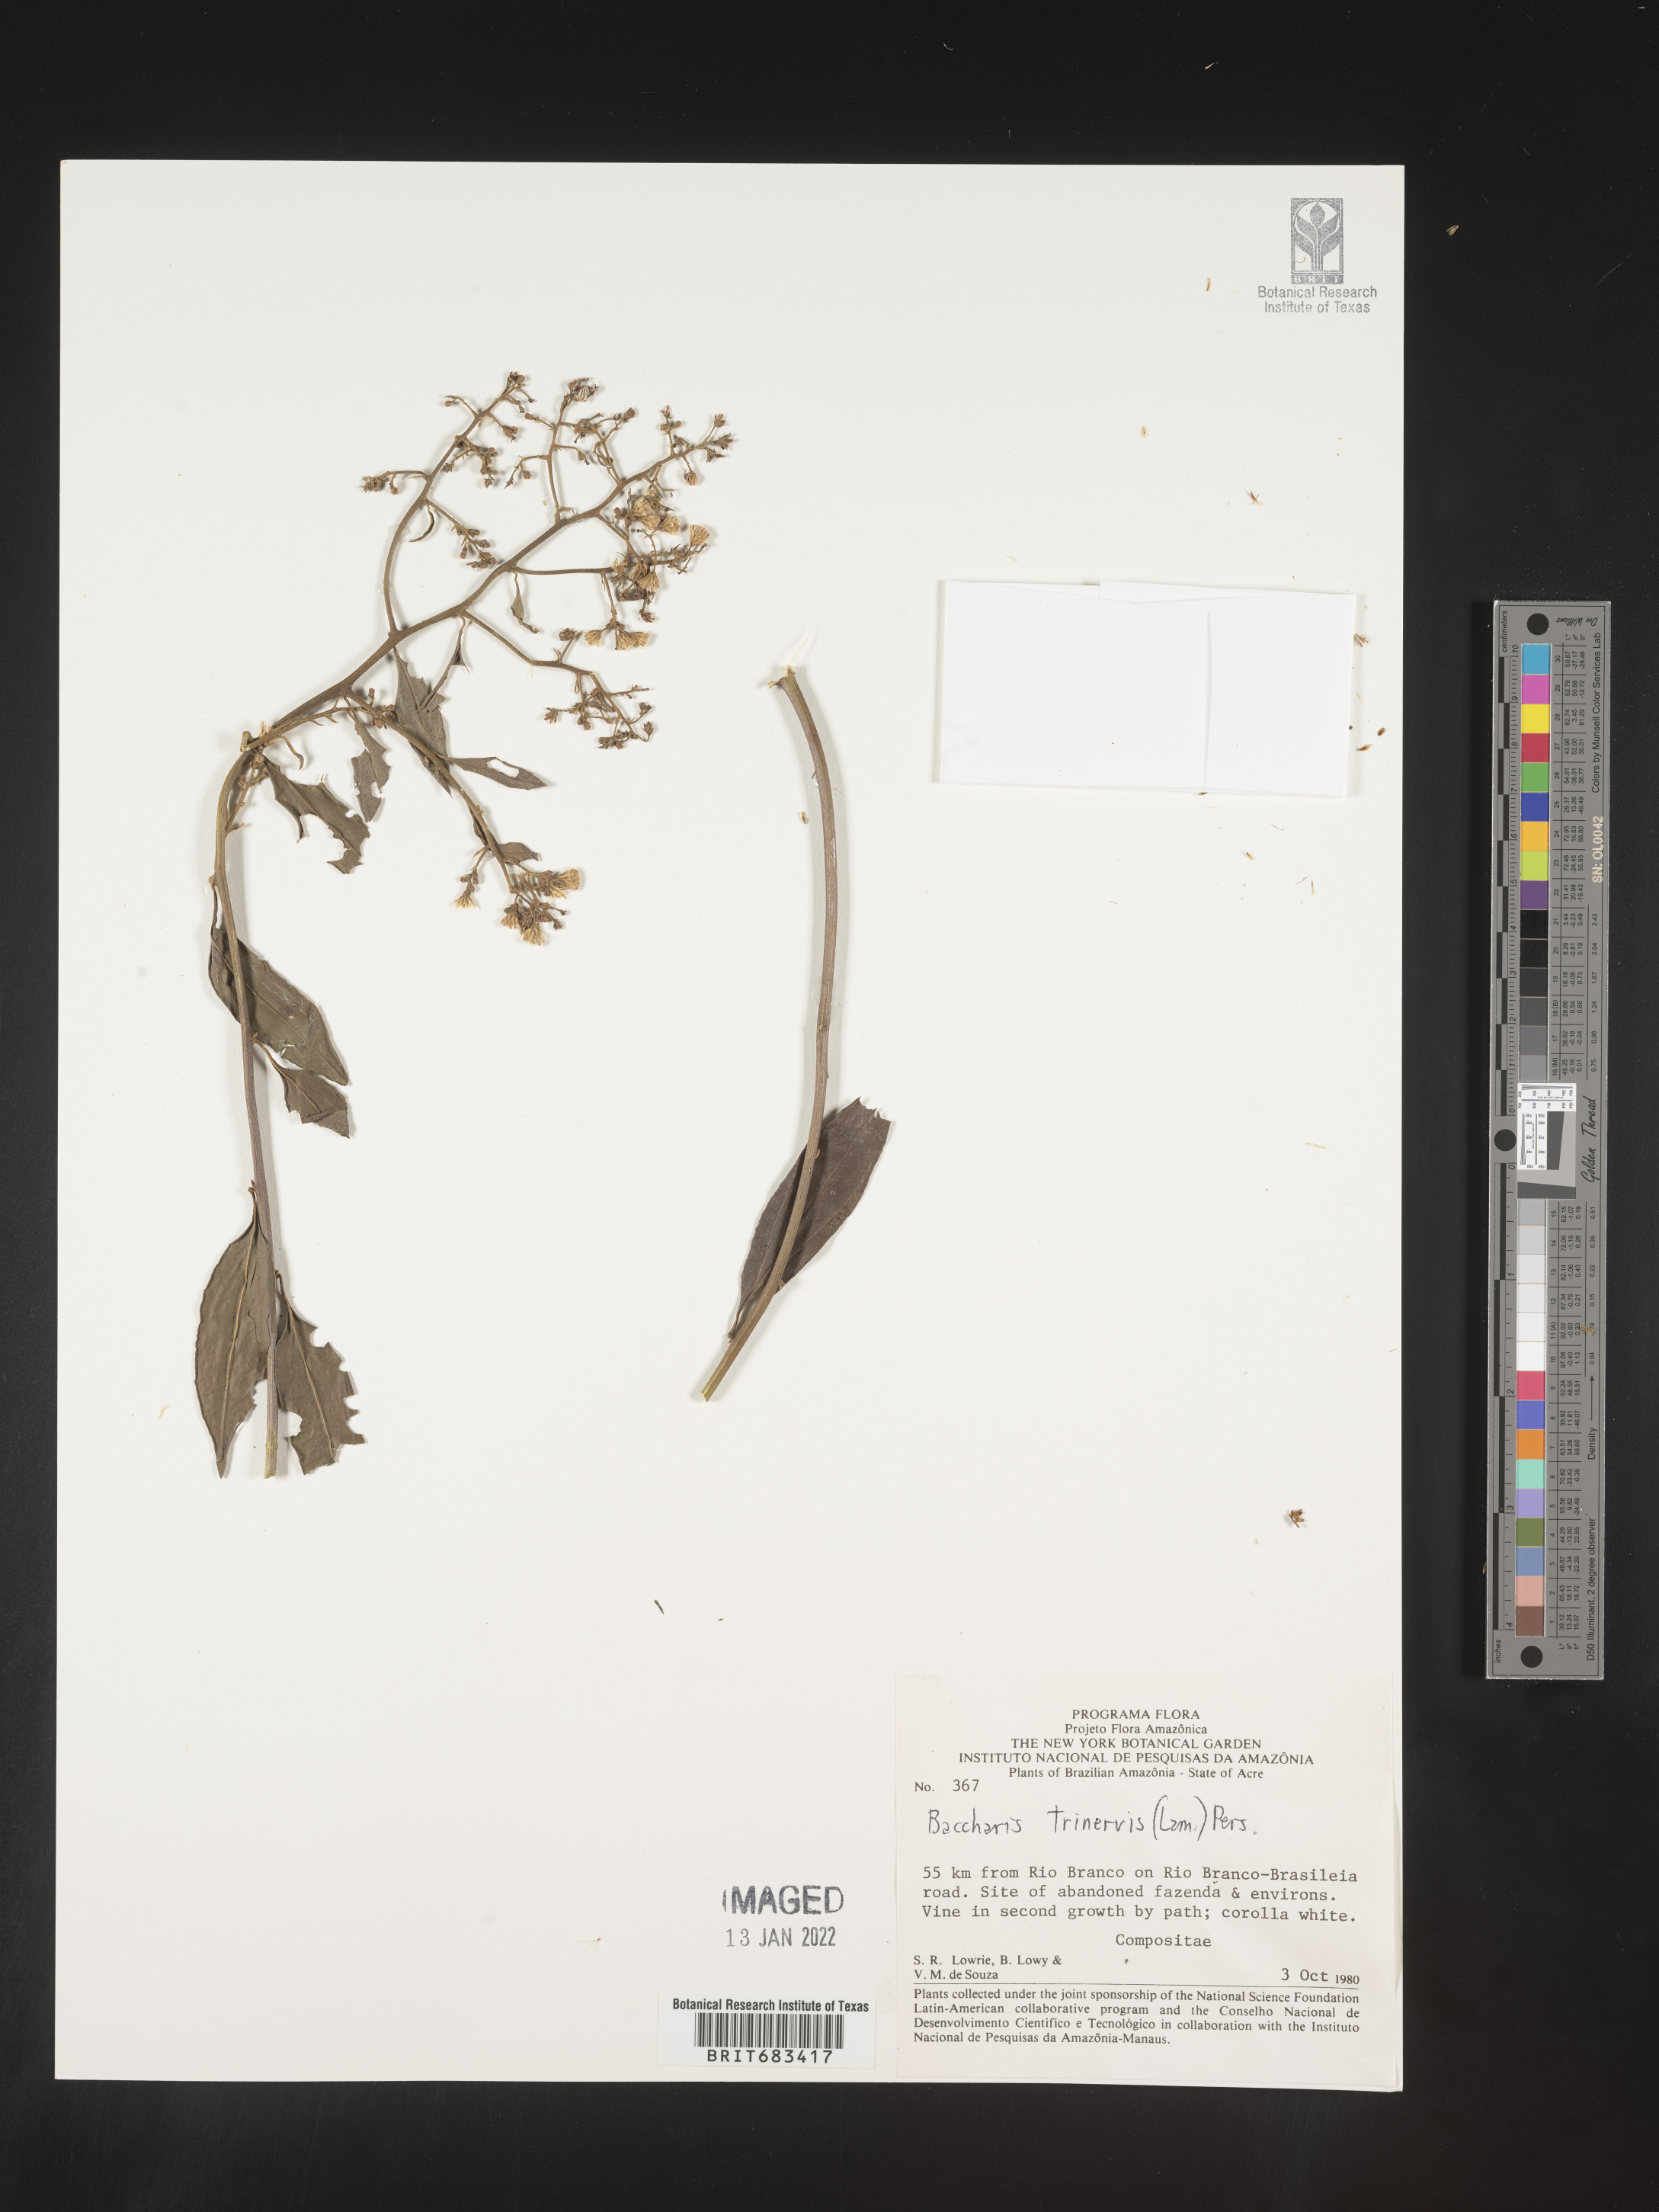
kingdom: Plantae
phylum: Tracheophyta
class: Magnoliopsida
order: Asterales
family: Asteraceae
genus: Baccharis
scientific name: Baccharis trinervis
